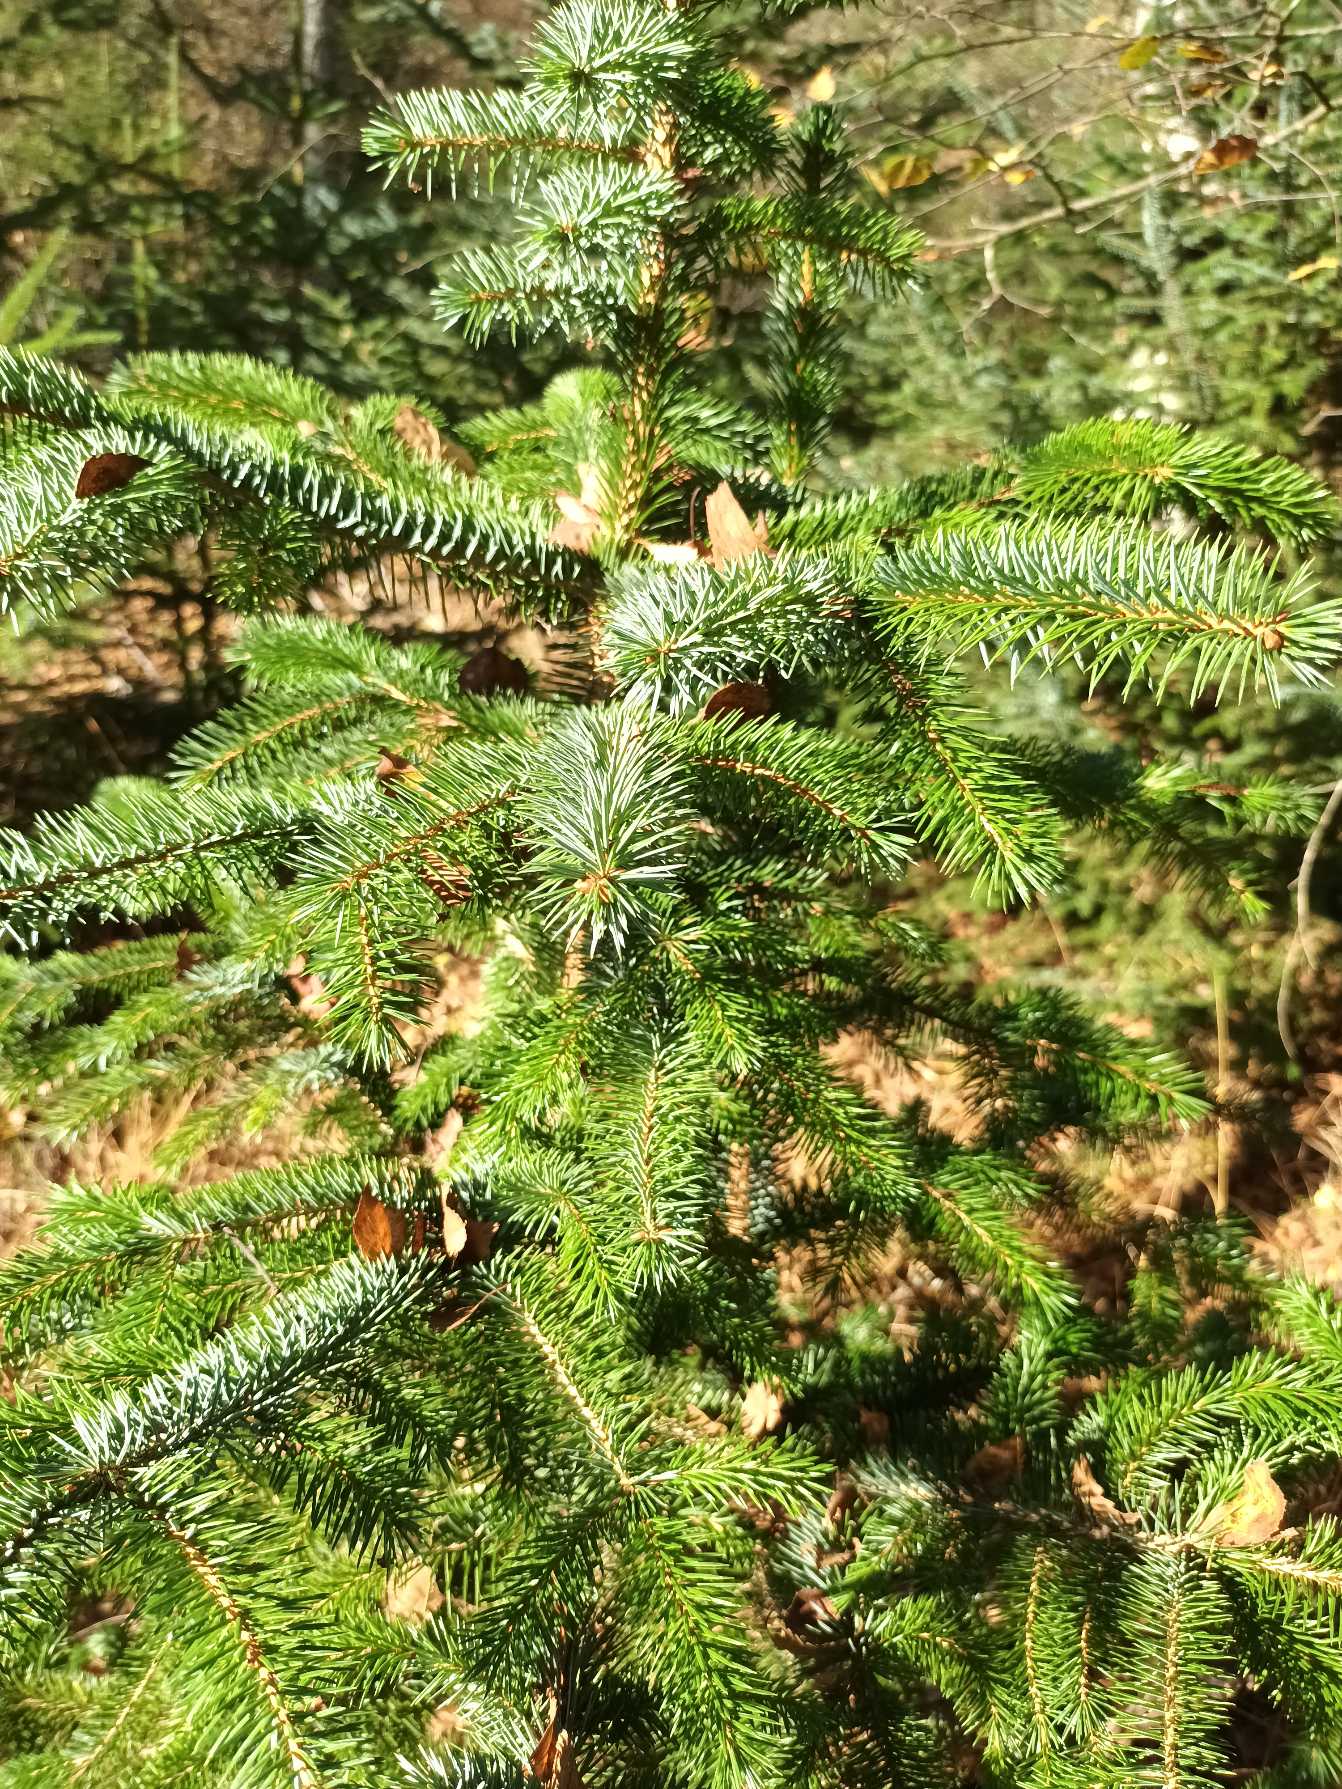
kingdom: Plantae
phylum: Tracheophyta
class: Pinopsida
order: Pinales
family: Pinaceae
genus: Picea
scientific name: Picea sitchensis
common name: Sitka-gran
